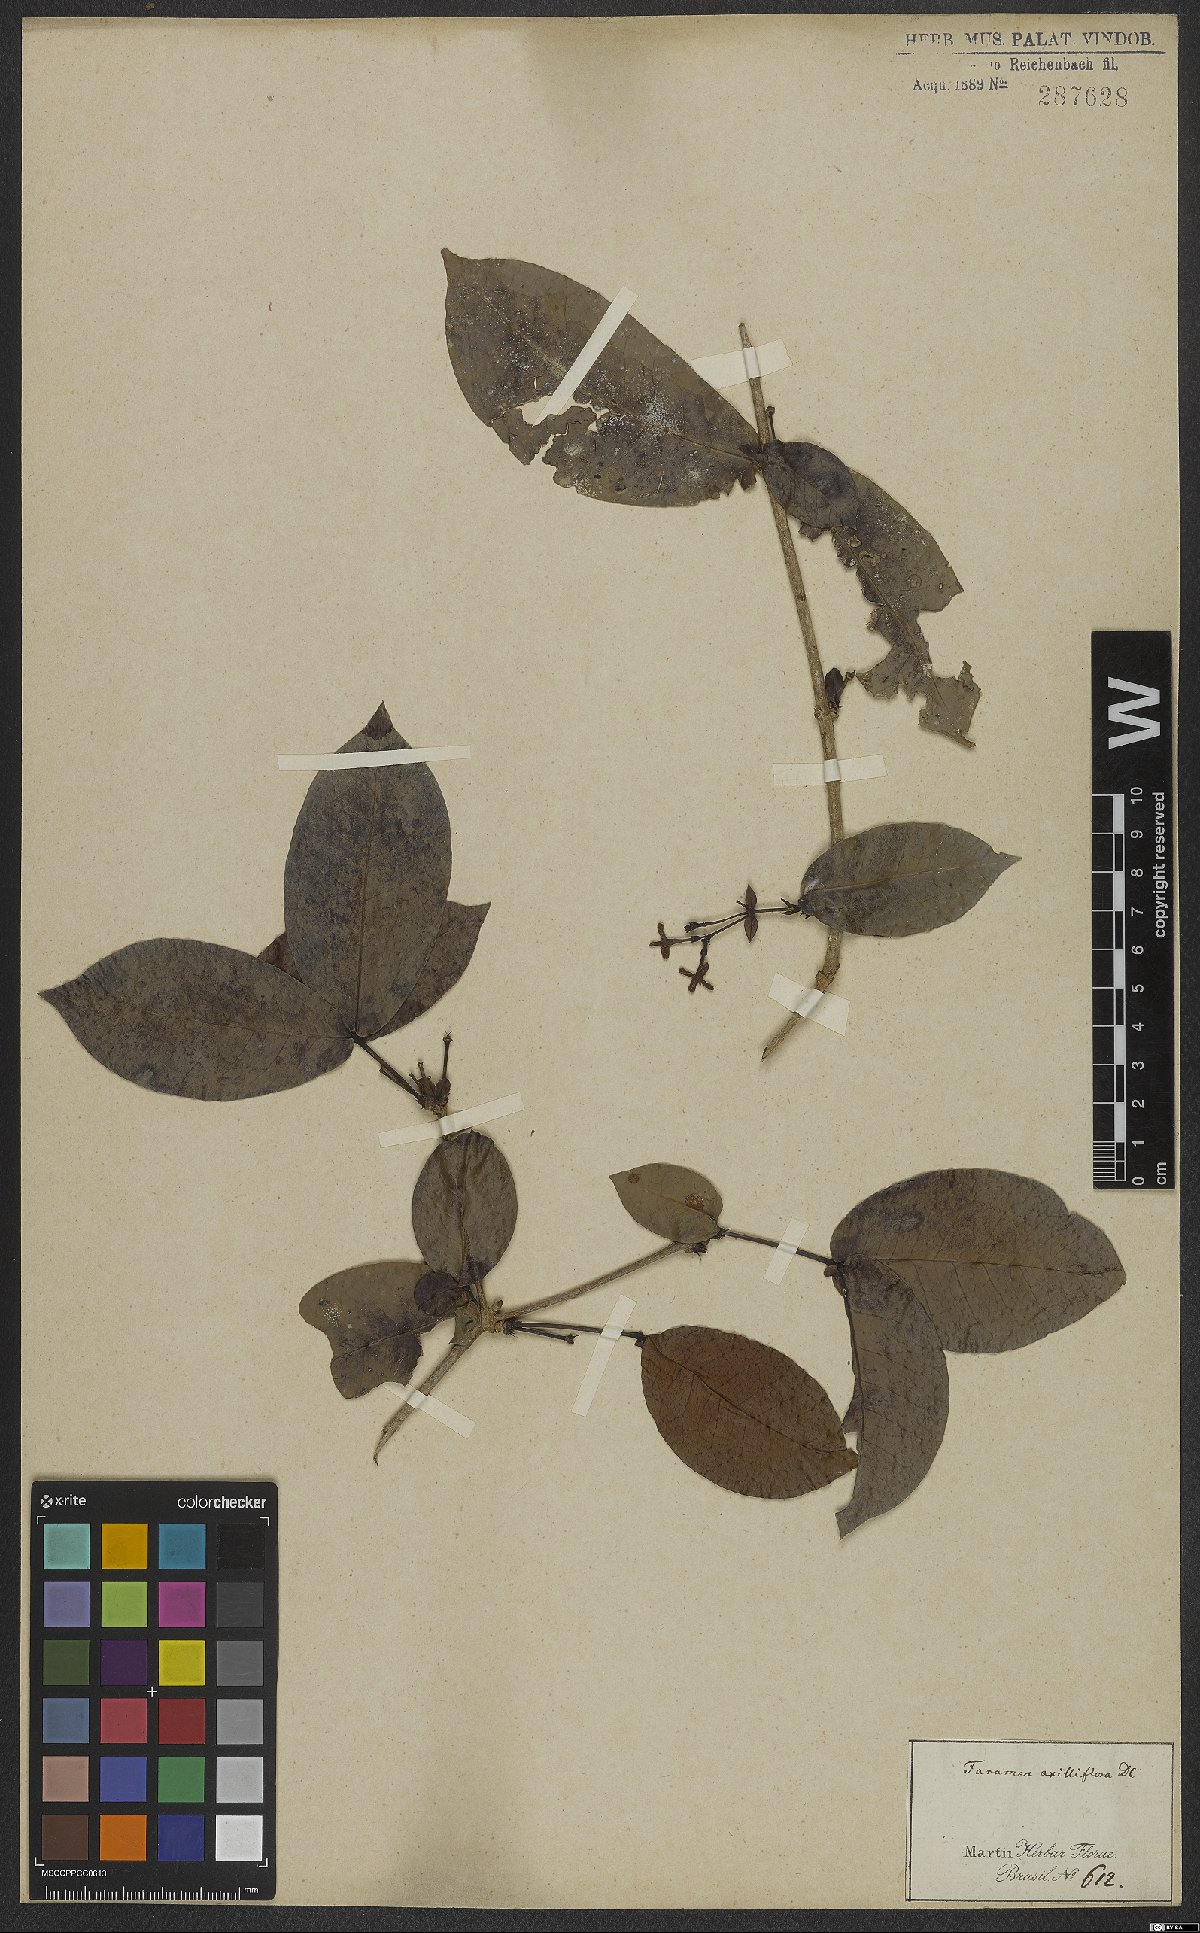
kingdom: Plantae
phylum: Tracheophyta
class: Magnoliopsida
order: Gentianales
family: Rubiaceae
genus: Ixora
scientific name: Ixora bahiensis
